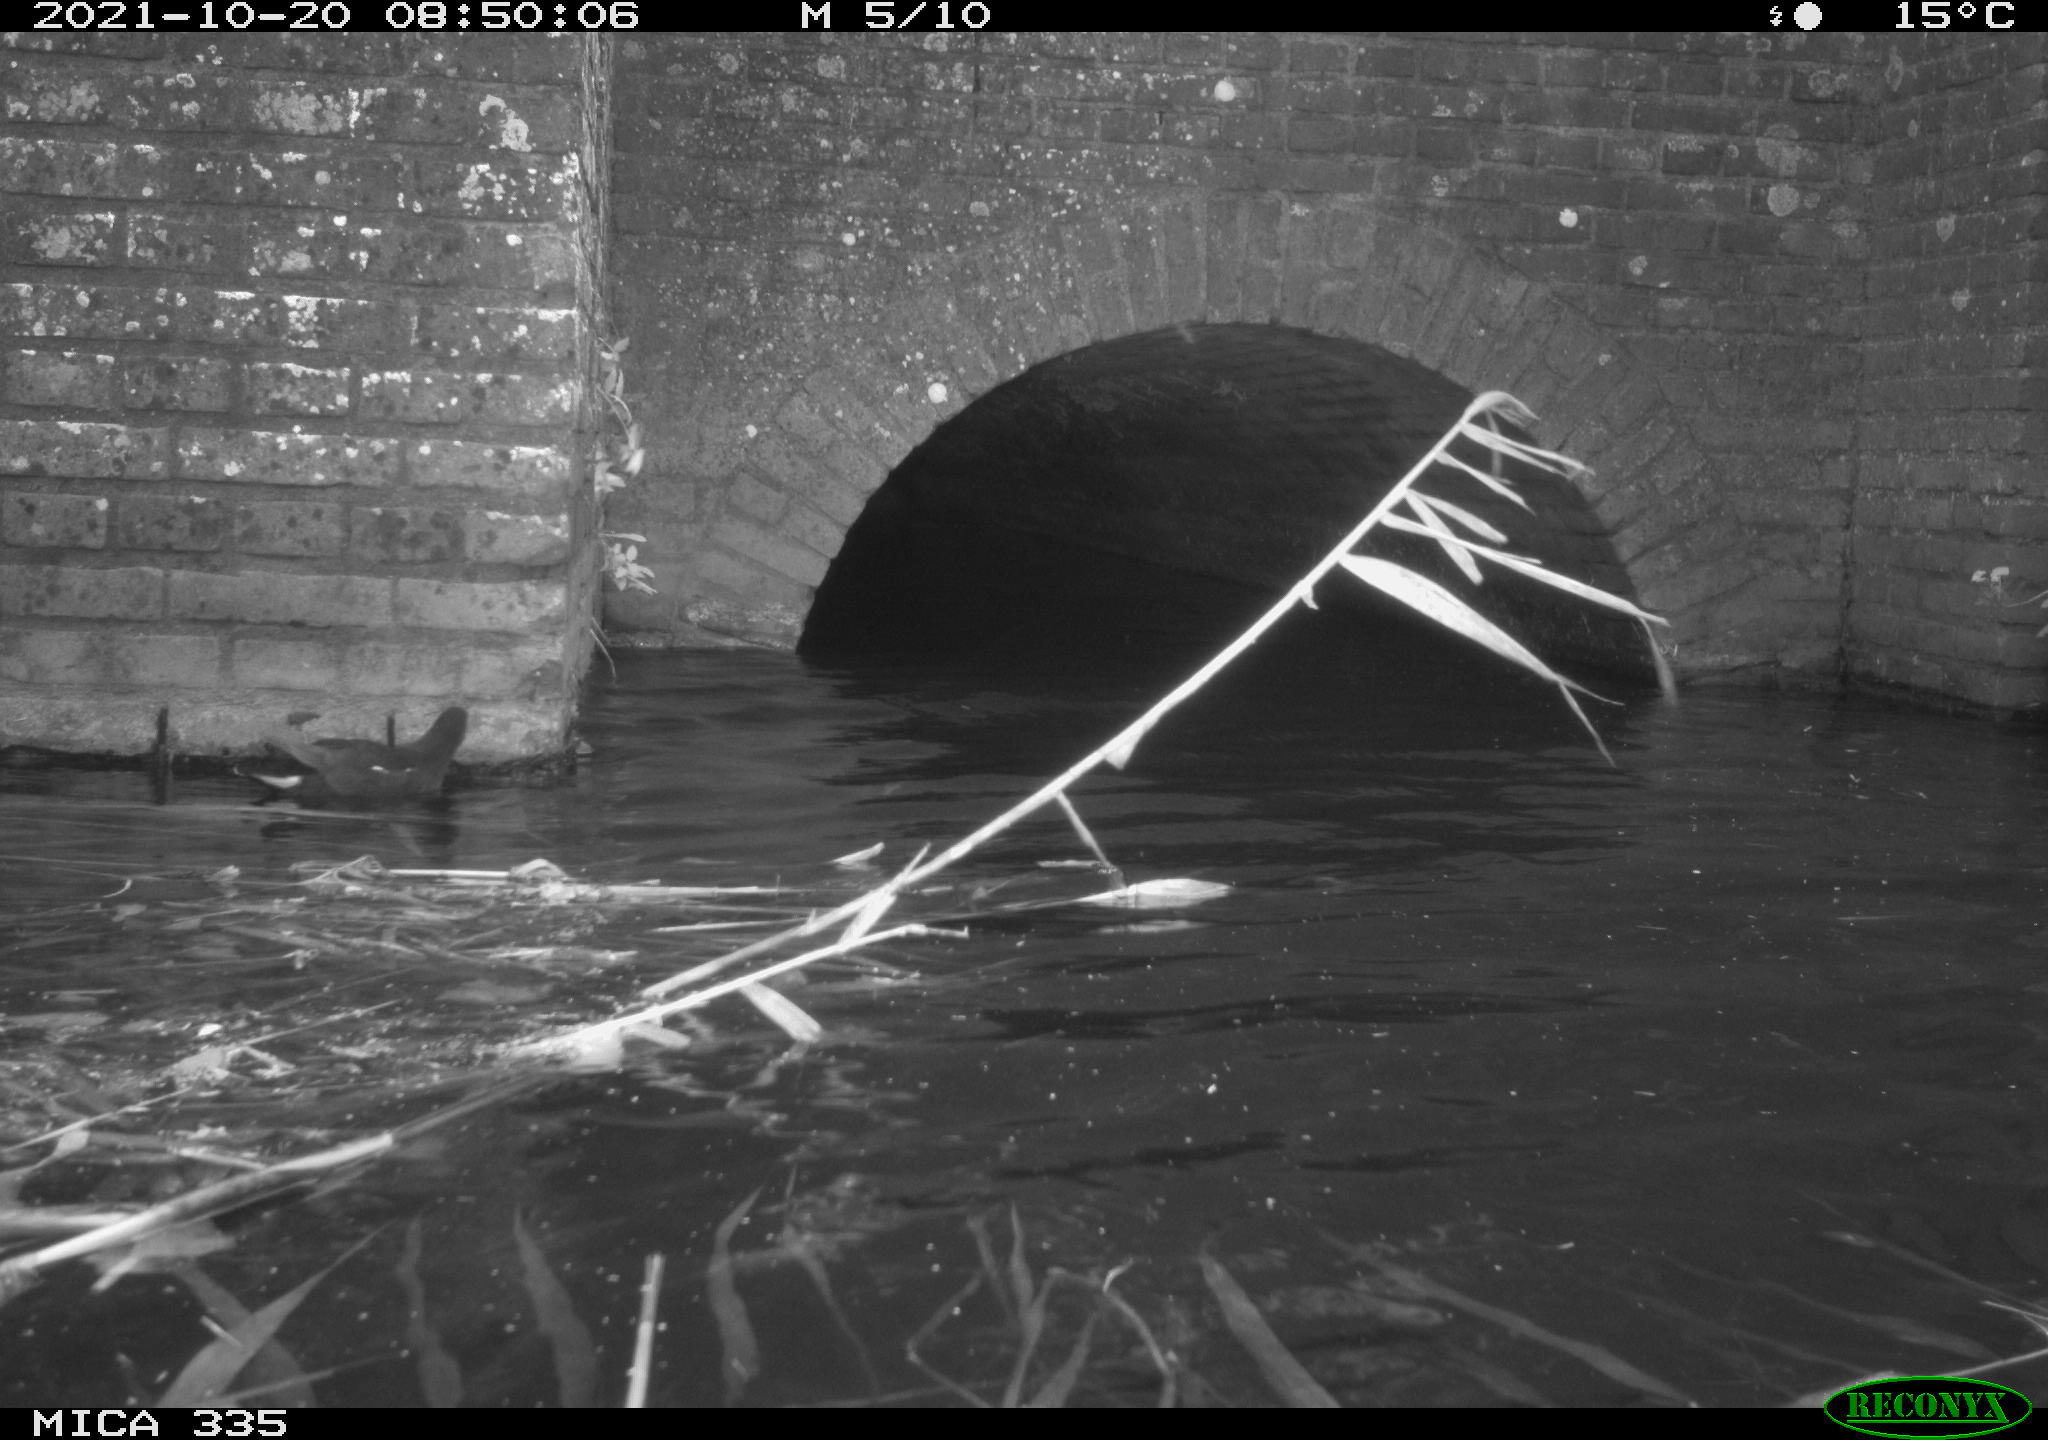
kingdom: Animalia
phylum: Chordata
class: Aves
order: Gruiformes
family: Rallidae
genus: Gallinula
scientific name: Gallinula chloropus
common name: Common moorhen
